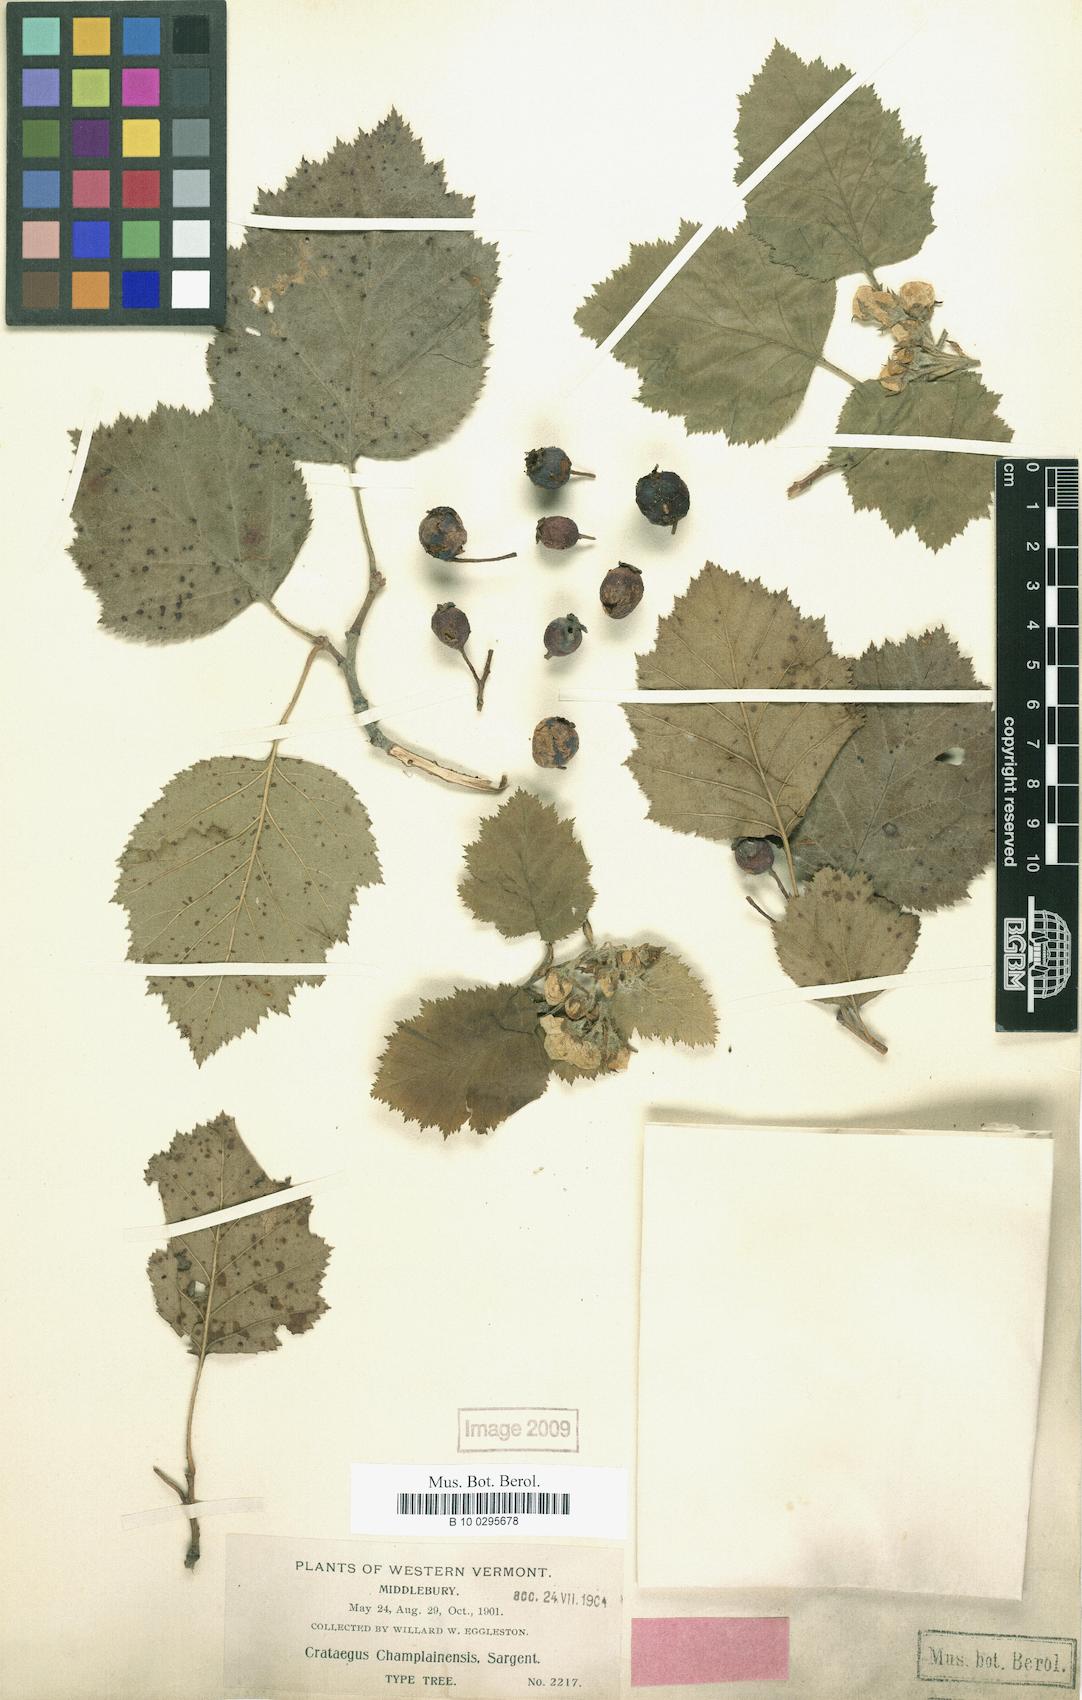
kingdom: Plantae
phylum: Tracheophyta
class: Magnoliopsida
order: Rosales
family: Rosaceae
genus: Crataegus
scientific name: Crataegus submollis
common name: Hairy cockspurthorn
